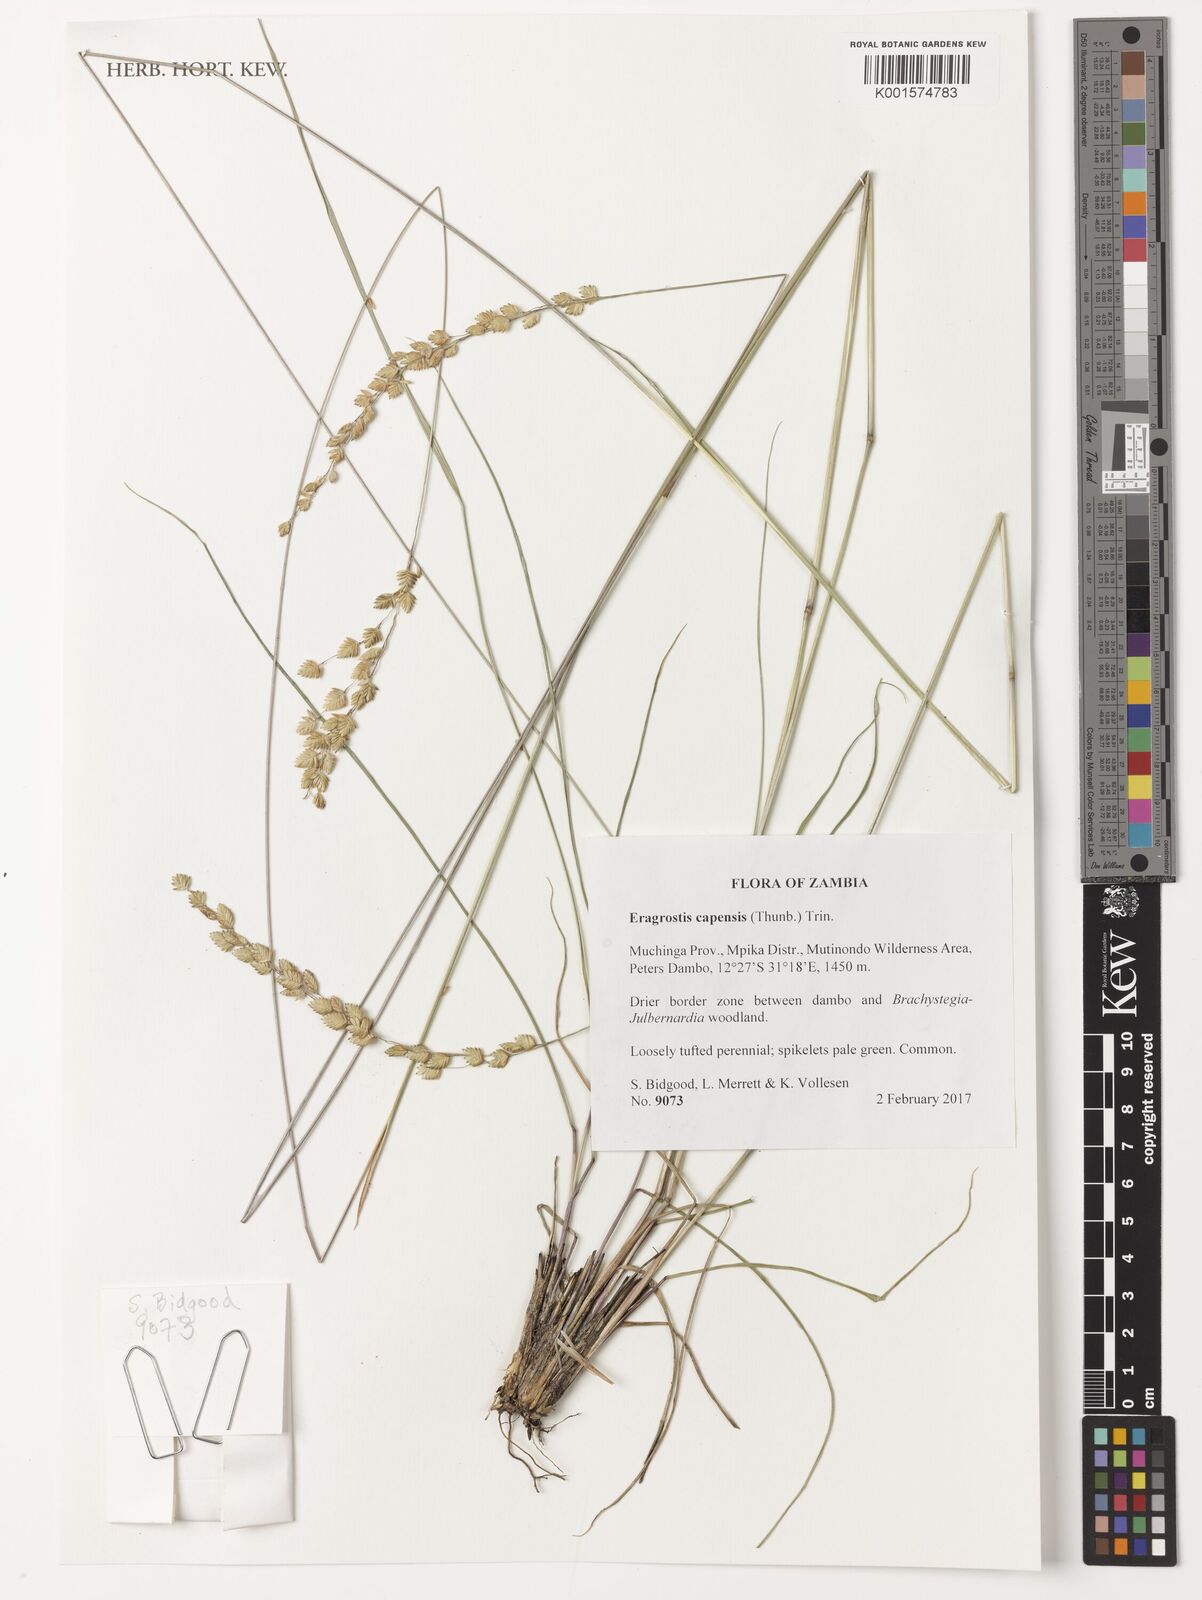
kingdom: Plantae
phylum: Tracheophyta
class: Liliopsida
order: Poales
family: Poaceae
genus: Eragrostis
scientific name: Eragrostis capensis
